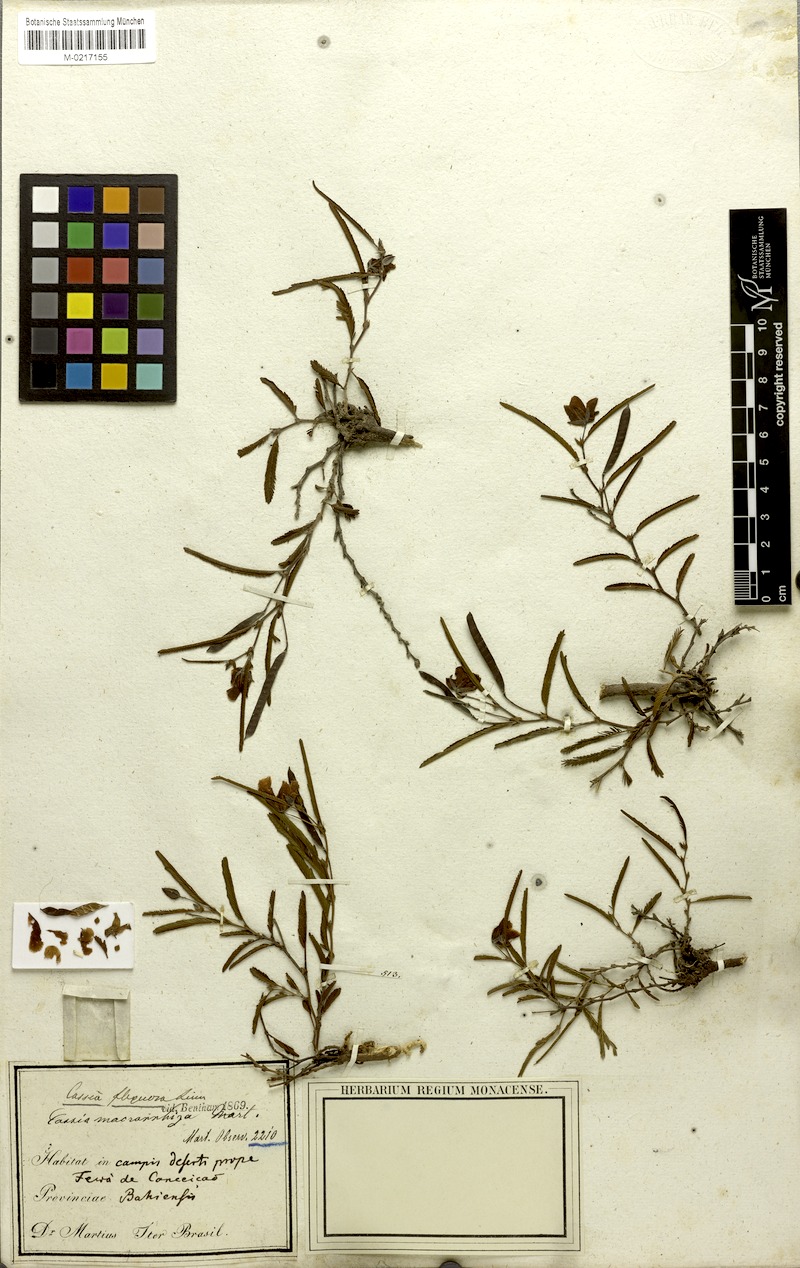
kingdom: Plantae
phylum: Tracheophyta
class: Magnoliopsida
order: Fabales
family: Fabaceae
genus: Chamaecrista
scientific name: Chamaecrista flexuosa
